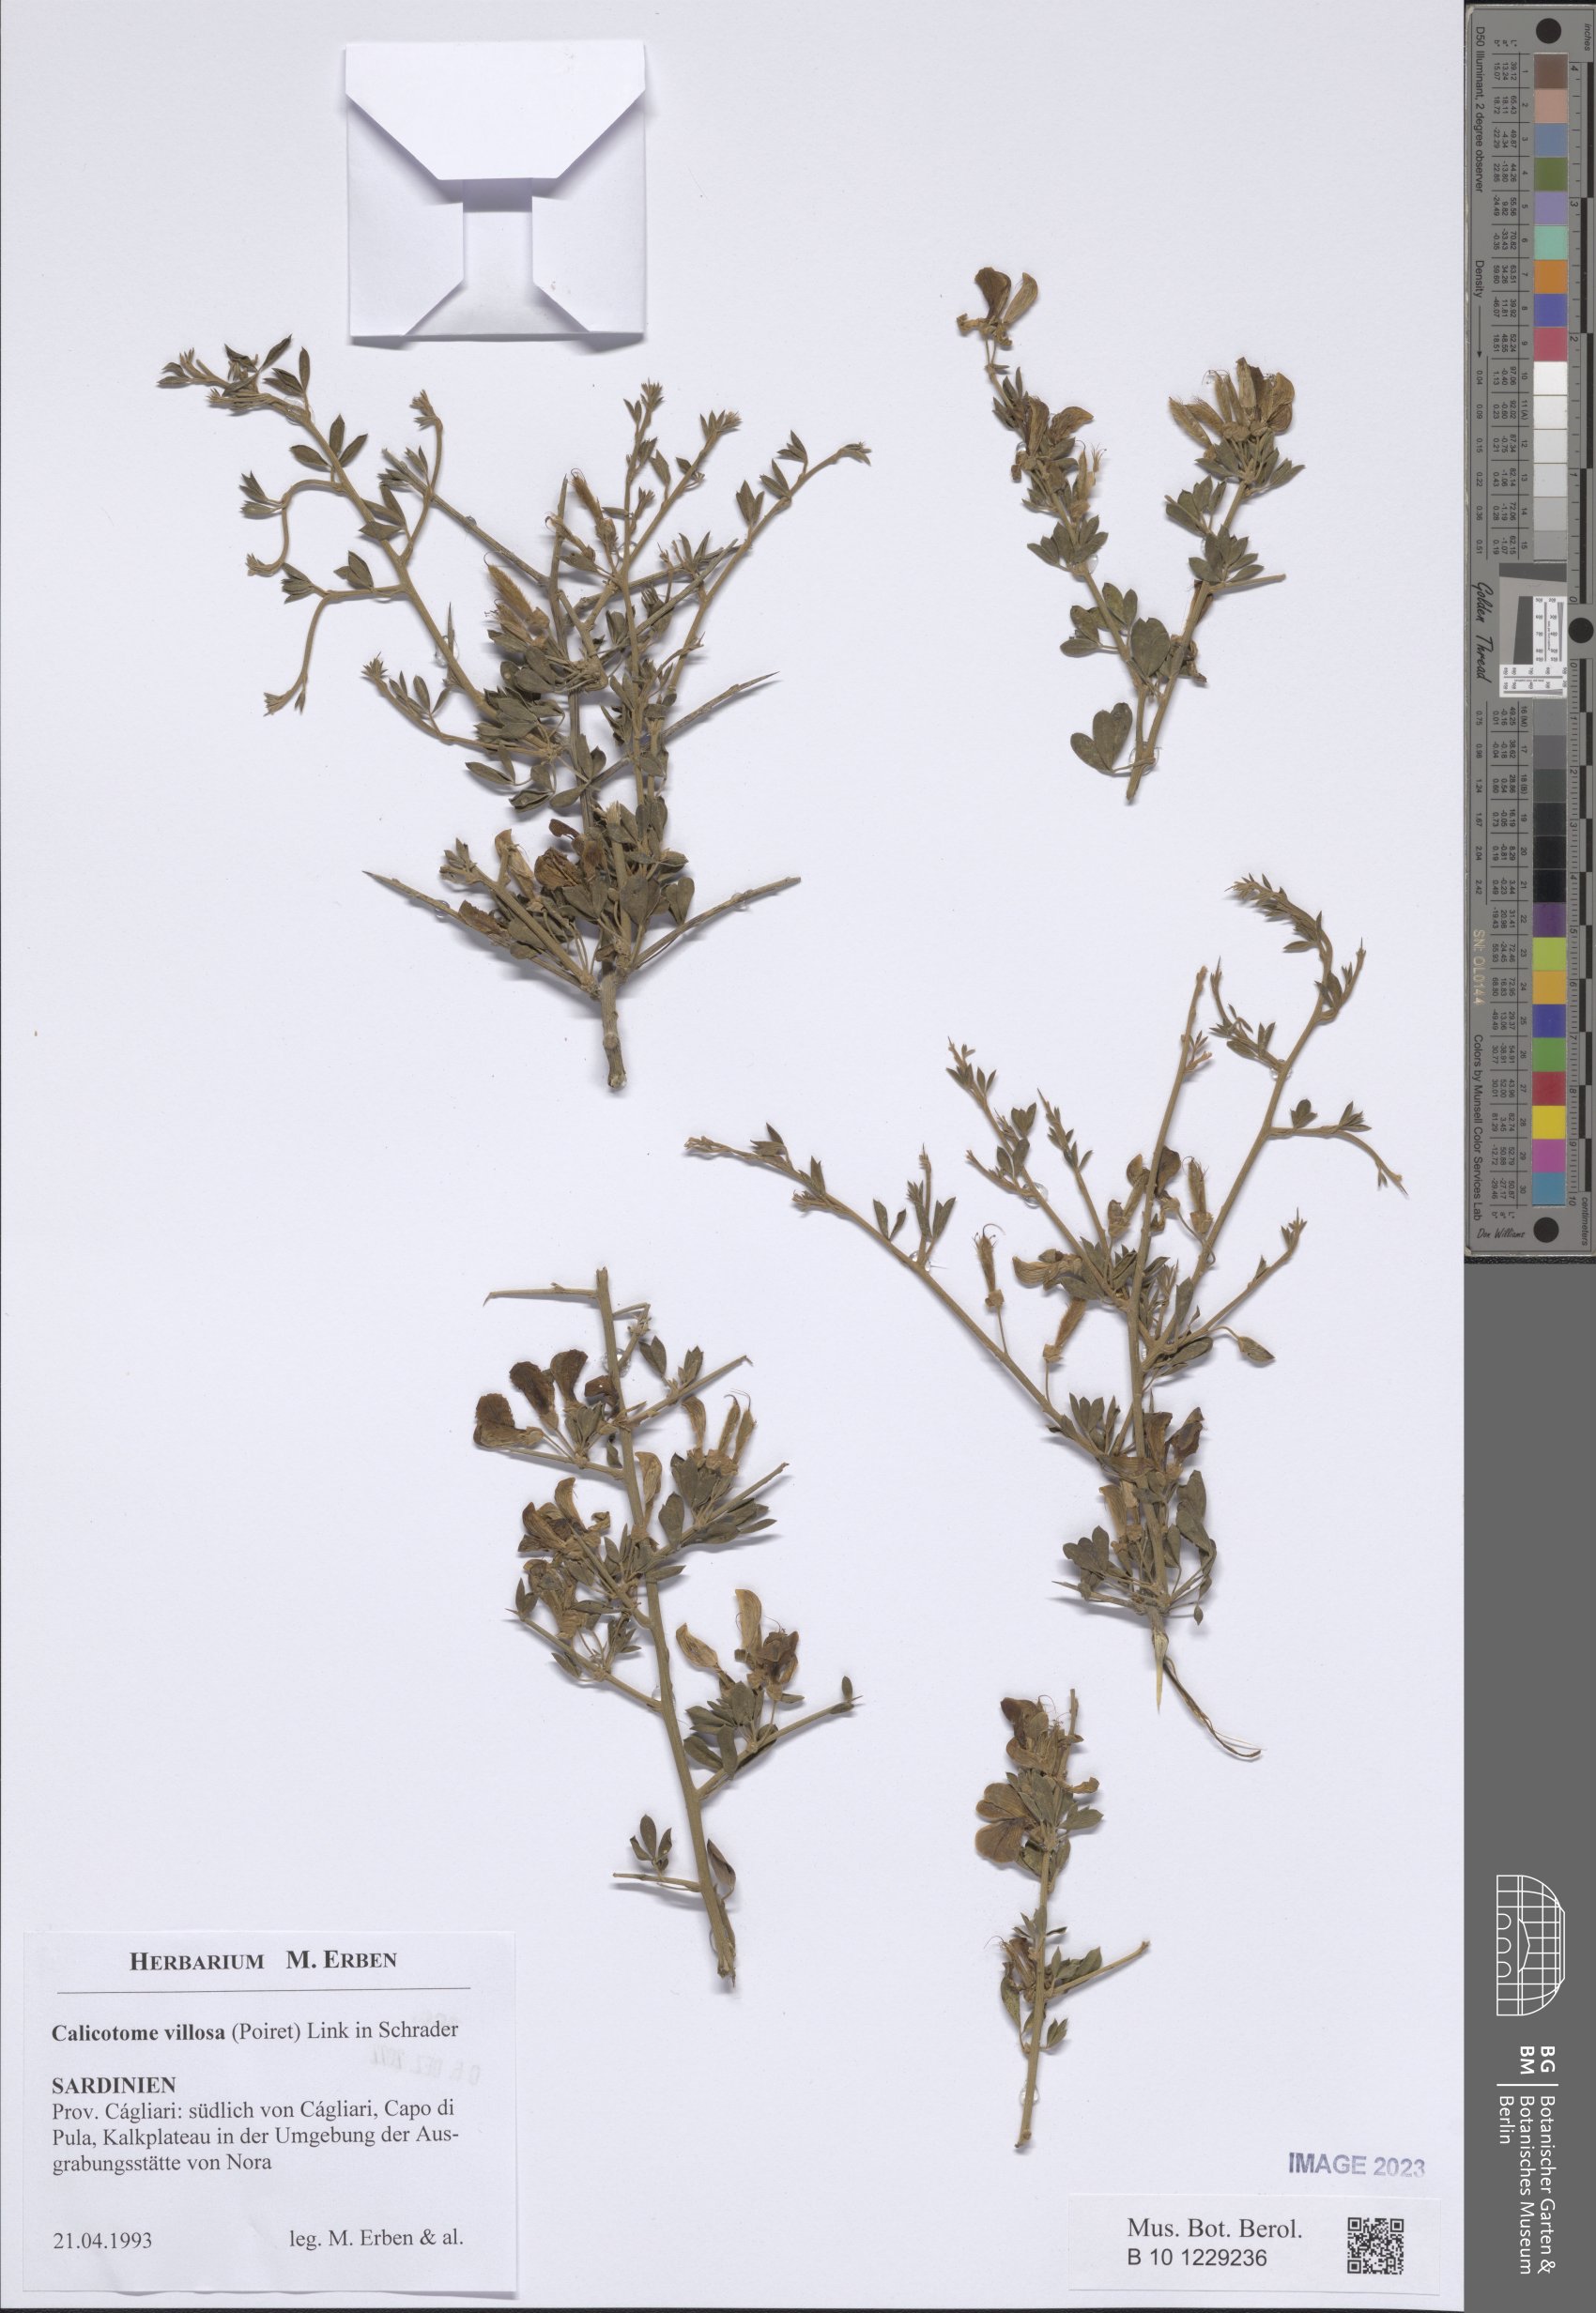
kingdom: Plantae
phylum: Tracheophyta
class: Magnoliopsida
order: Fabales
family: Fabaceae
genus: Calicotome
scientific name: Calicotome villosa
